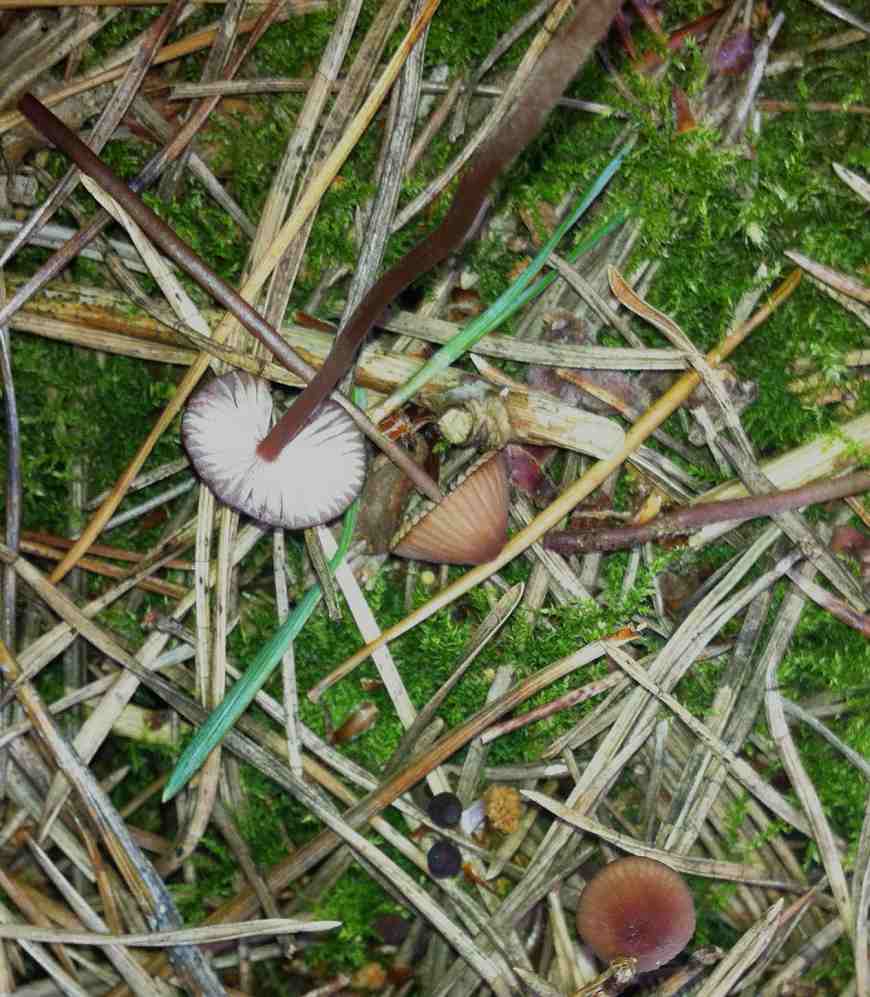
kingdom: Fungi
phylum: Basidiomycota
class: Agaricomycetes
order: Agaricales
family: Mycenaceae
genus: Mycena
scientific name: Mycena sanguinolenta
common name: rødmælket huesvamp
